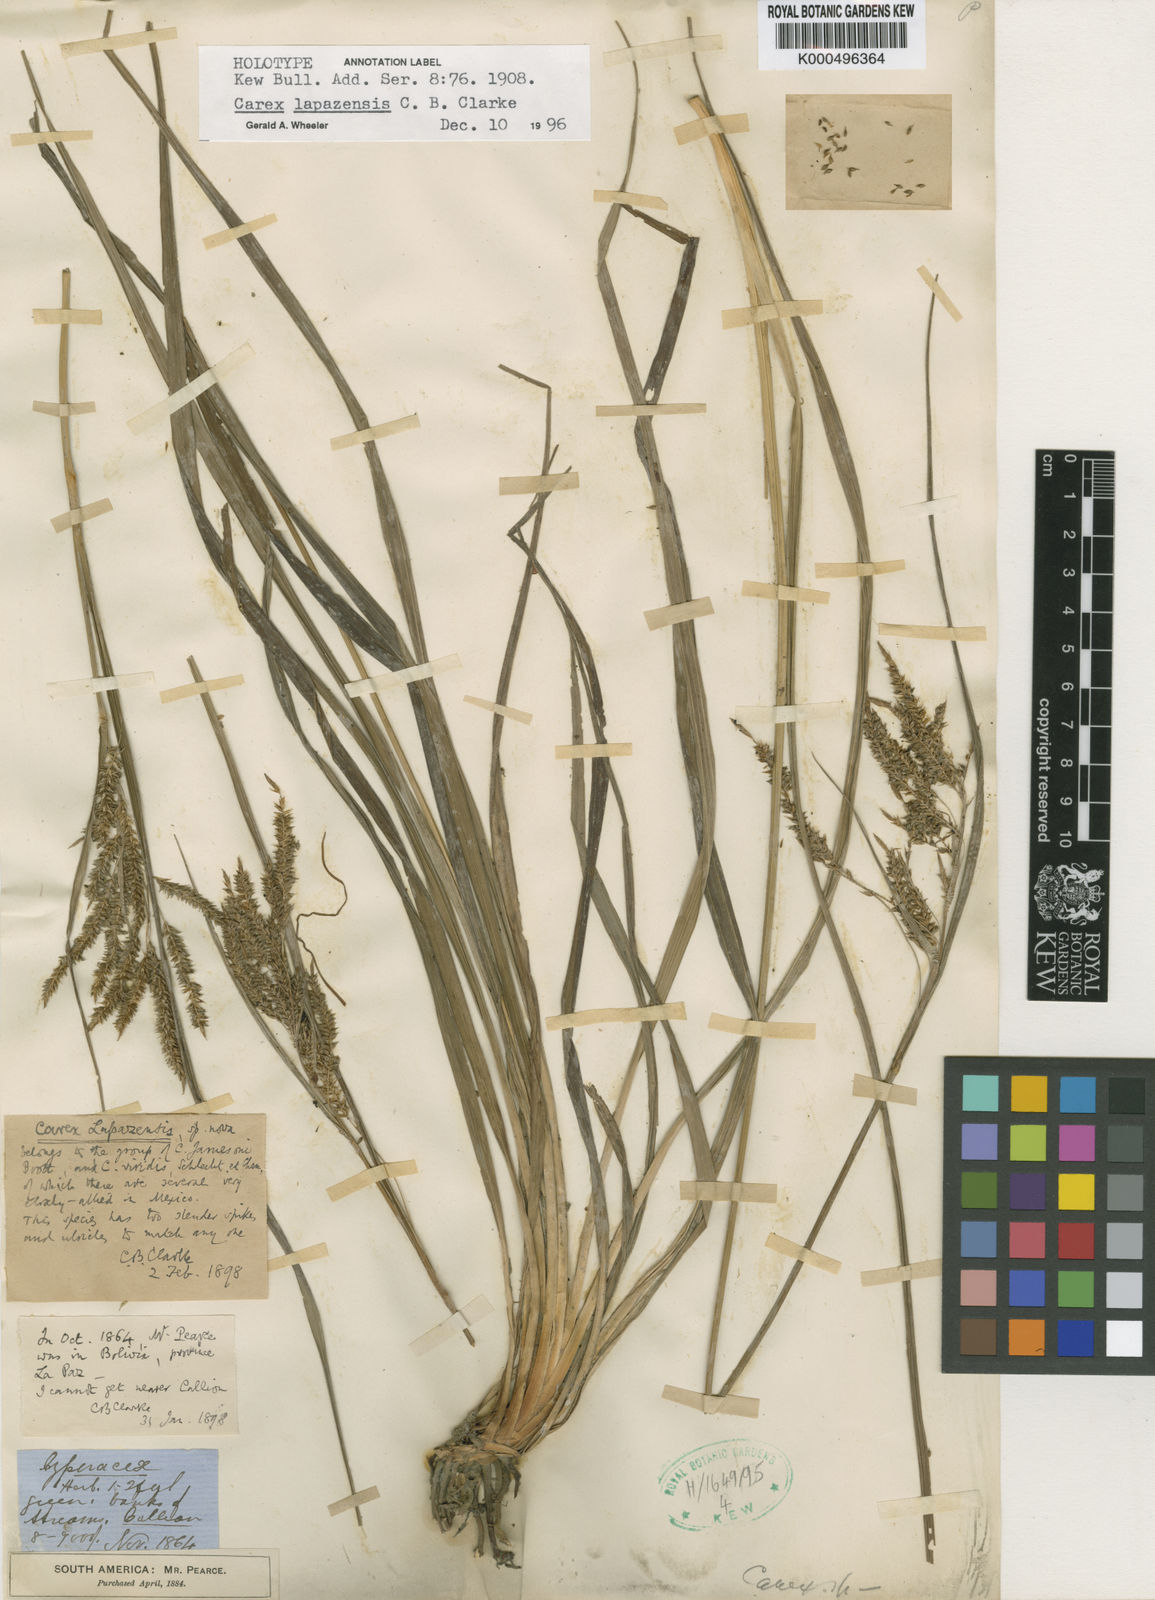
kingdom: Plantae
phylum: Tracheophyta
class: Liliopsida
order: Poales
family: Cyperaceae
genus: Carex
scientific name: Carex lapazensis
